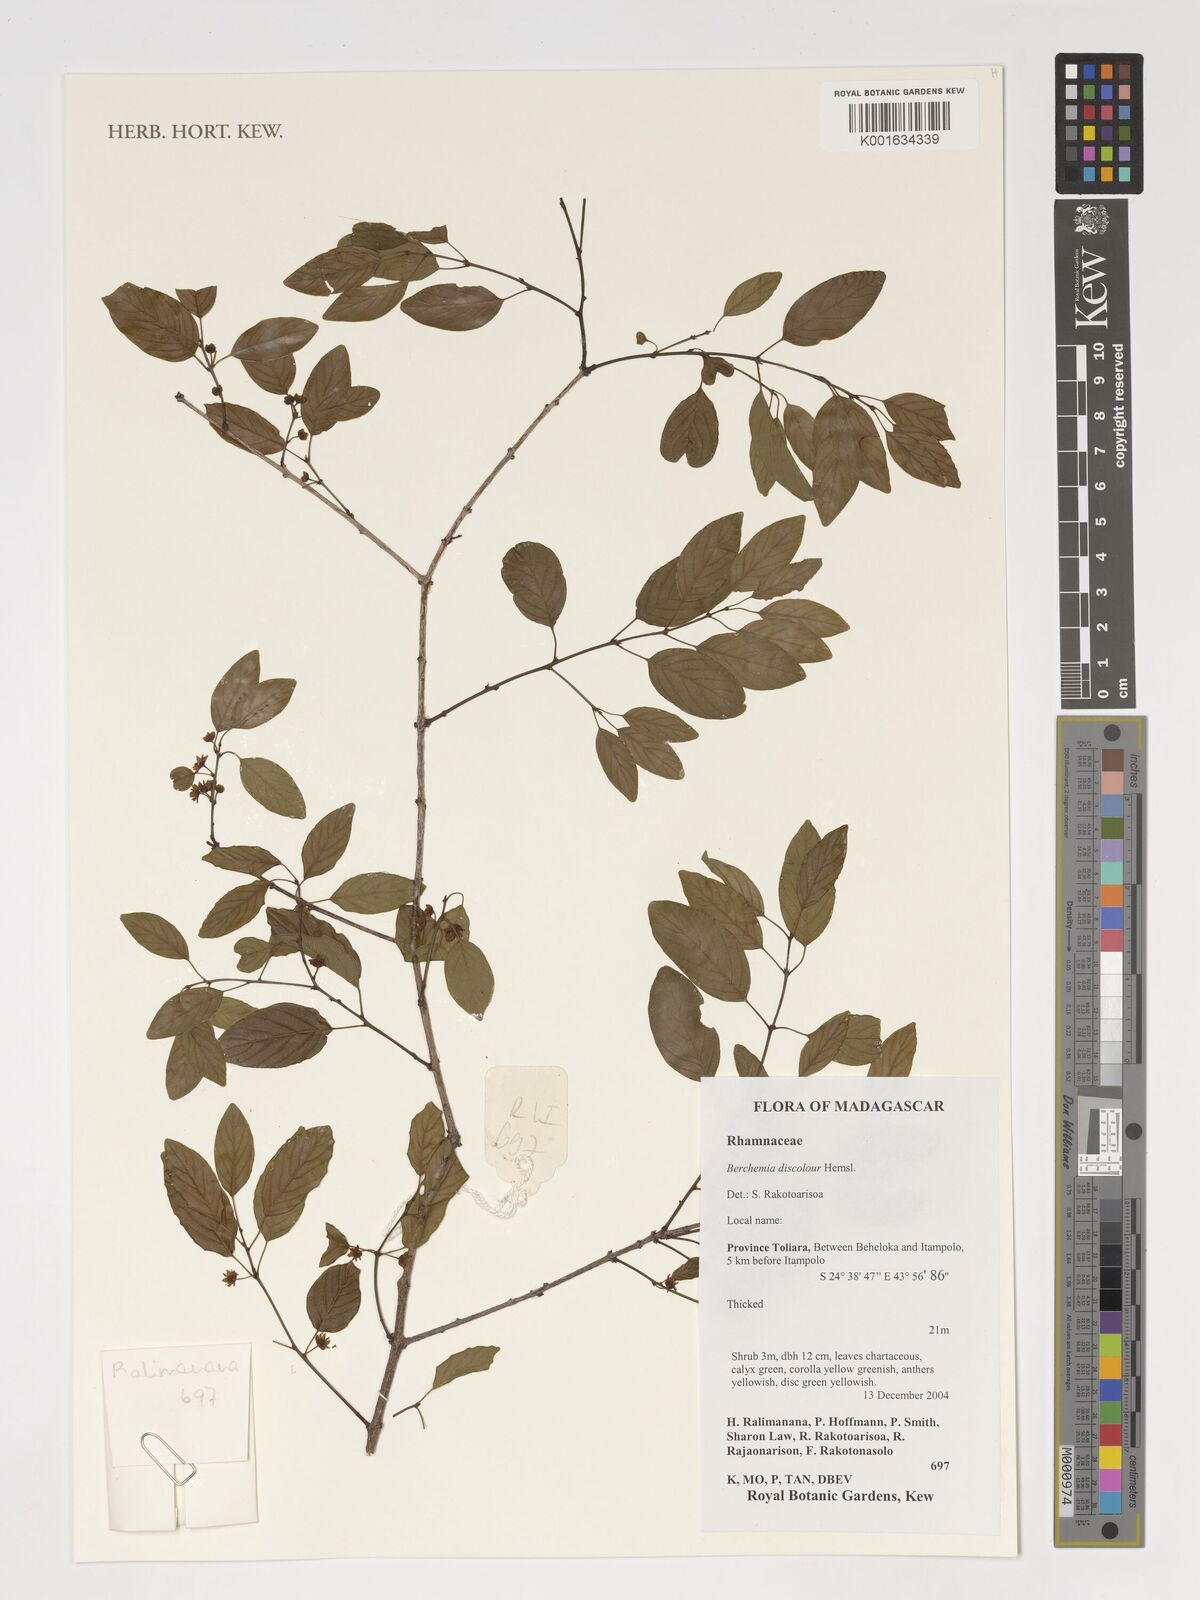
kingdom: Plantae
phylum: Tracheophyta
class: Magnoliopsida
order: Rosales
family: Rhamnaceae
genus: Phyllogeiton
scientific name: Phyllogeiton discolor
